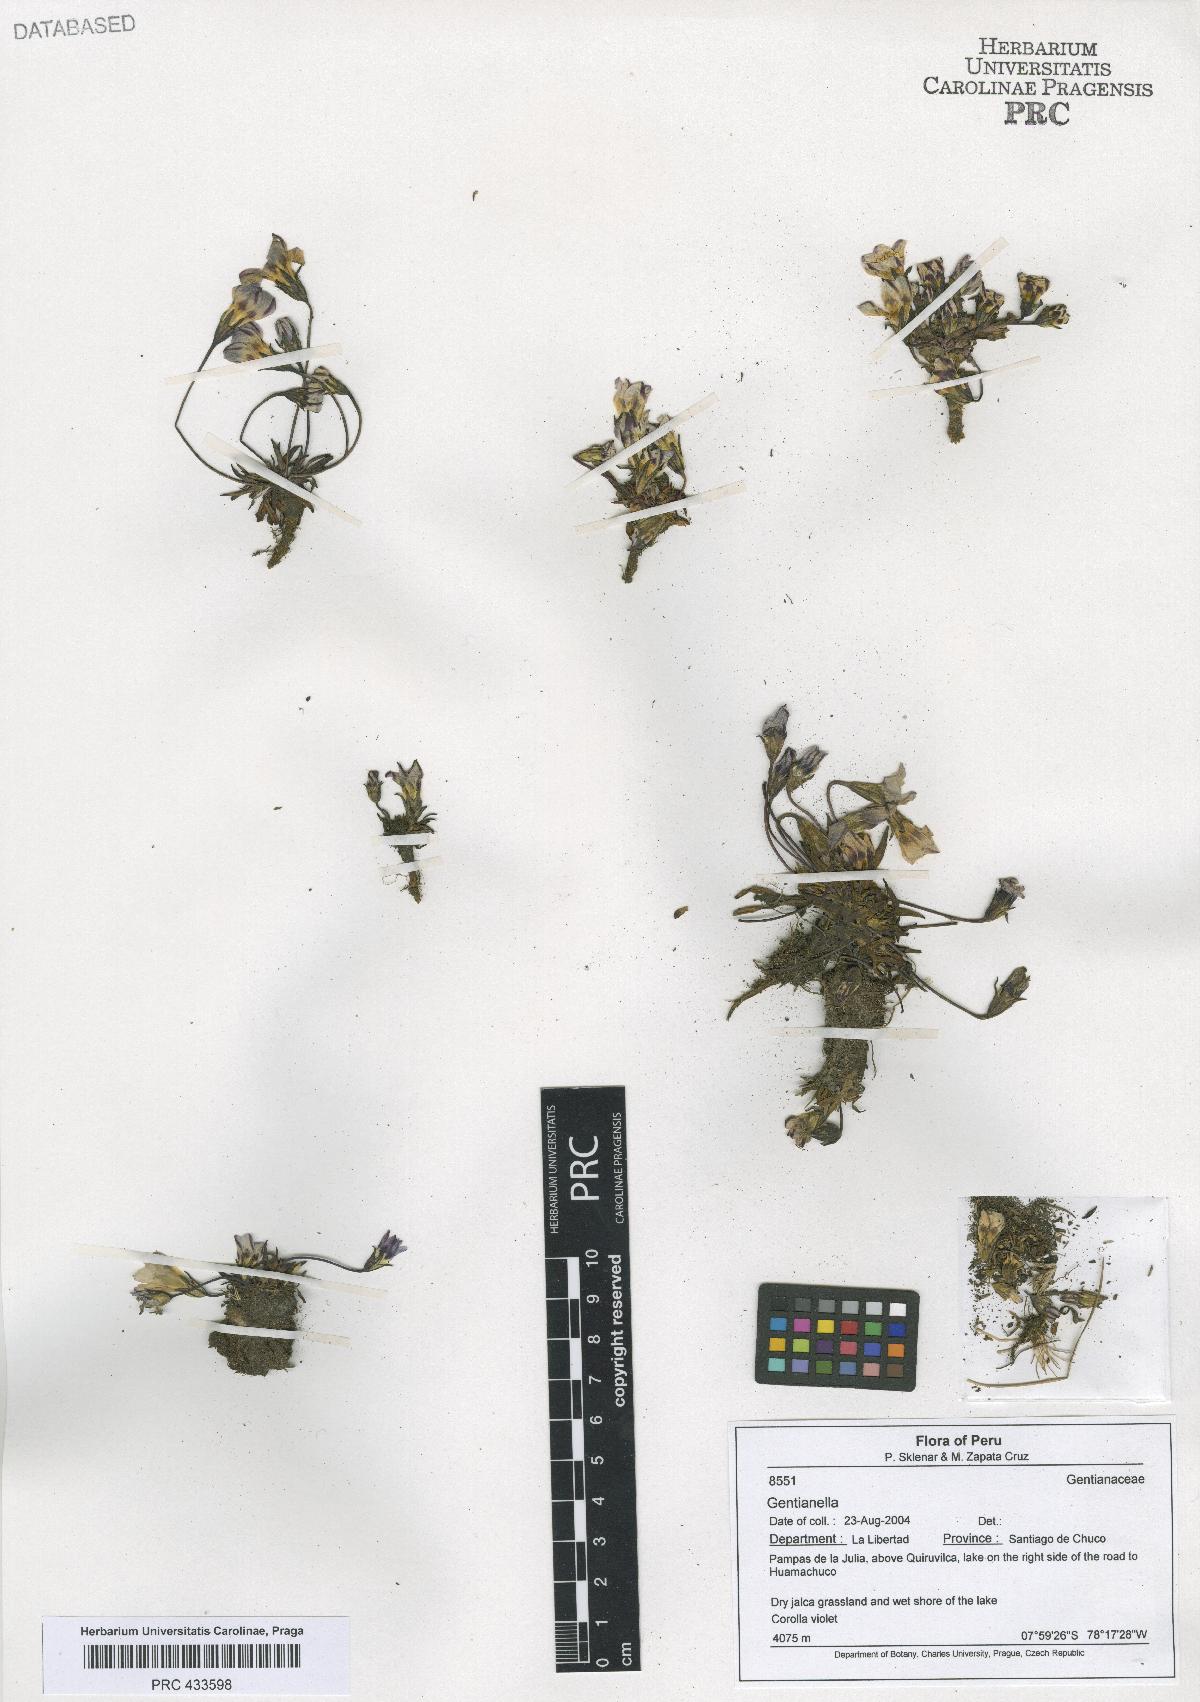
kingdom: Plantae
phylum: Tracheophyta
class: Magnoliopsida
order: Gentianales
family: Gentianaceae
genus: Gentianella
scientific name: Gentianella
